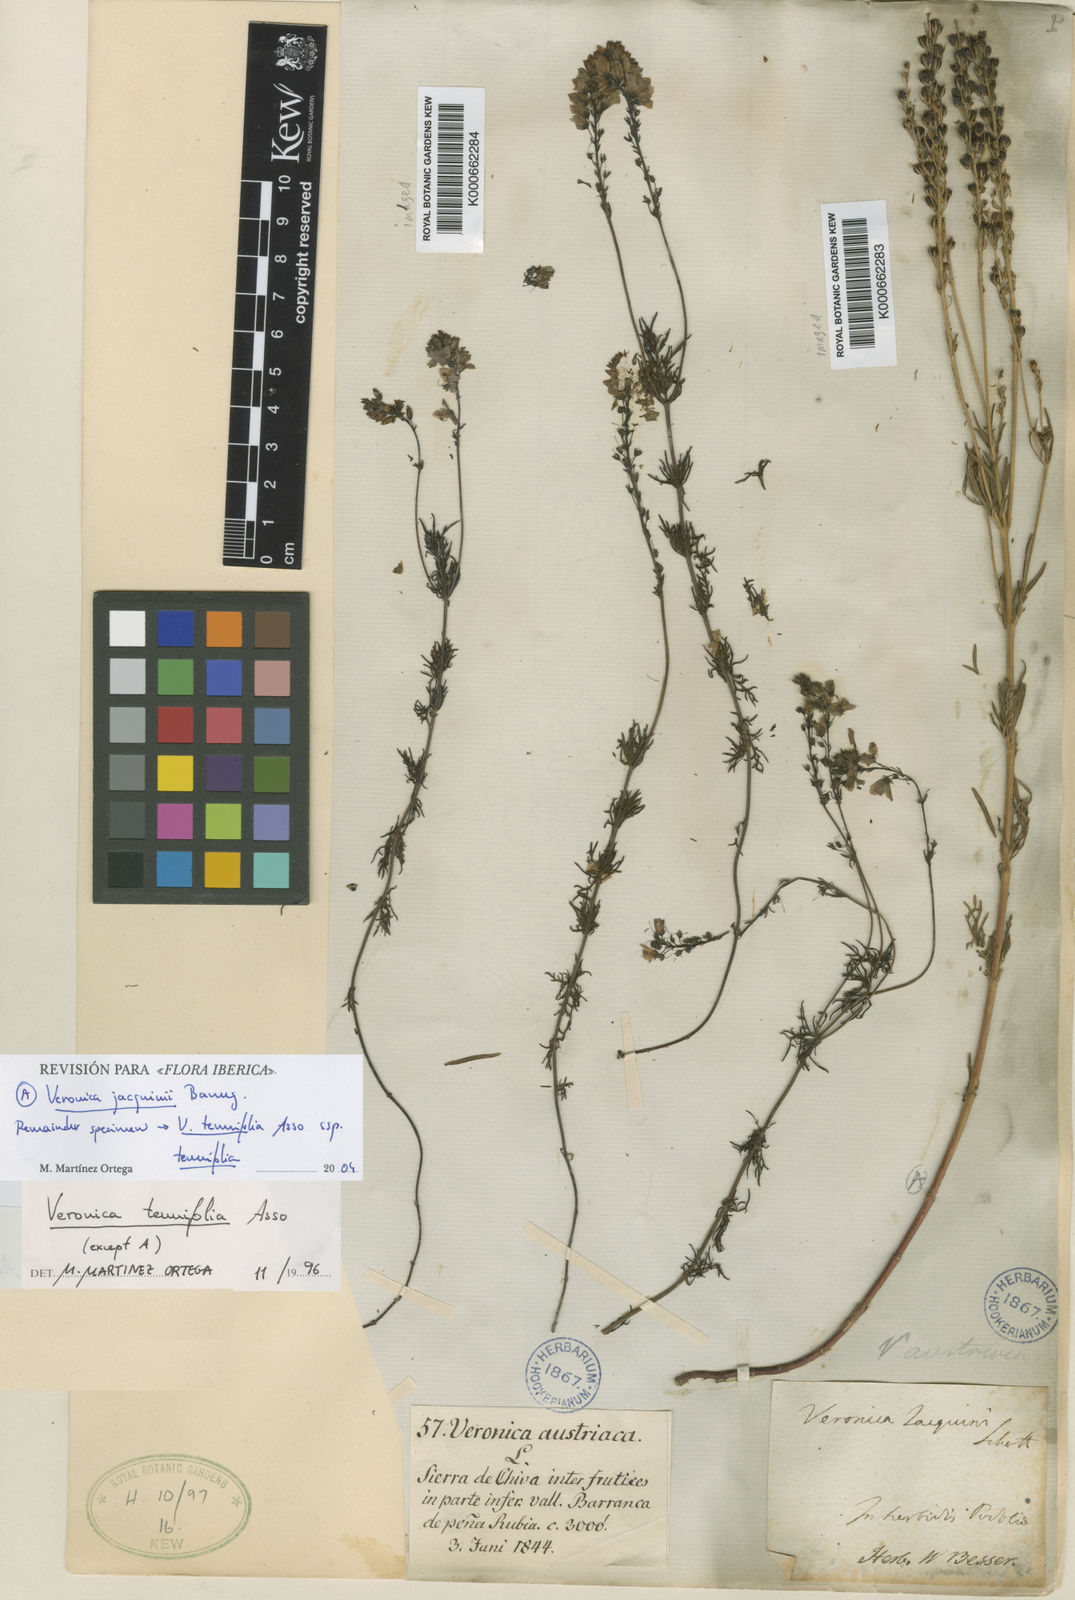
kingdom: Plantae
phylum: Tracheophyta
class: Magnoliopsida
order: Lamiales
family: Plantaginaceae
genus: Veronica
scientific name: Veronica tenuifolia
